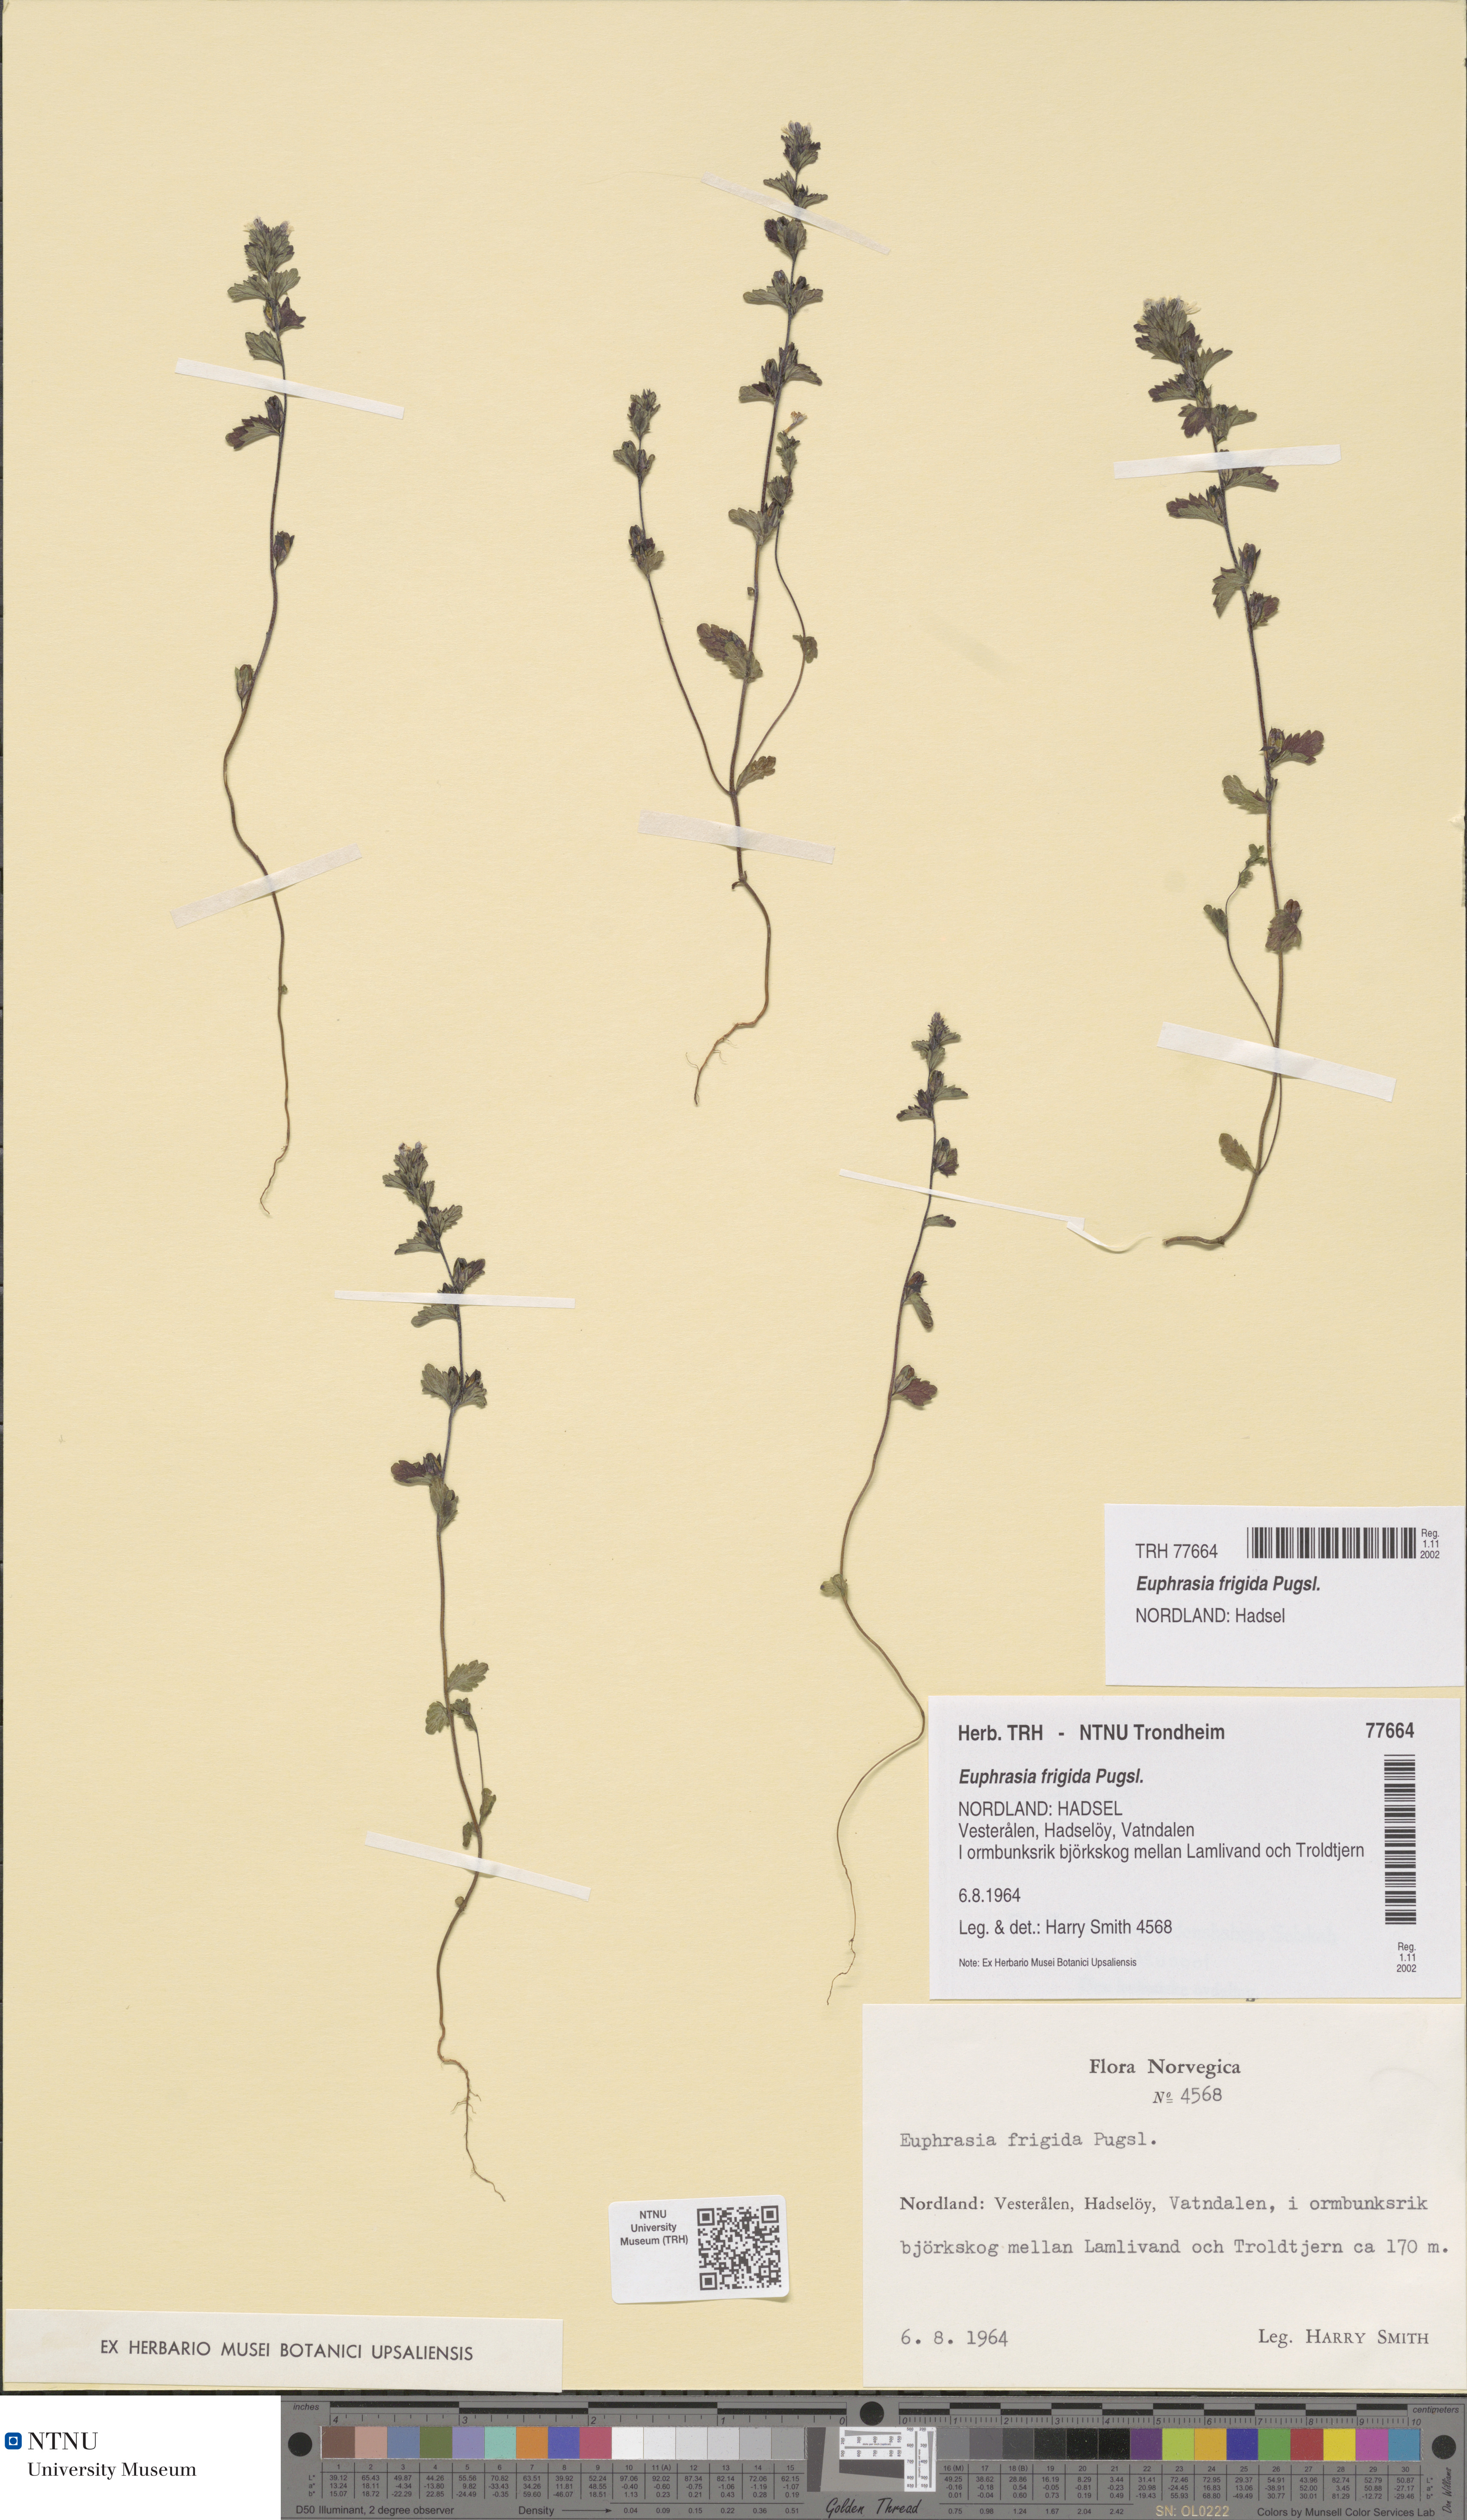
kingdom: Plantae
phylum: Tracheophyta
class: Magnoliopsida
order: Lamiales
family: Orobanchaceae
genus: Euphrasia
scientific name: Euphrasia wettsteinii
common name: Wettstein's eyebright
